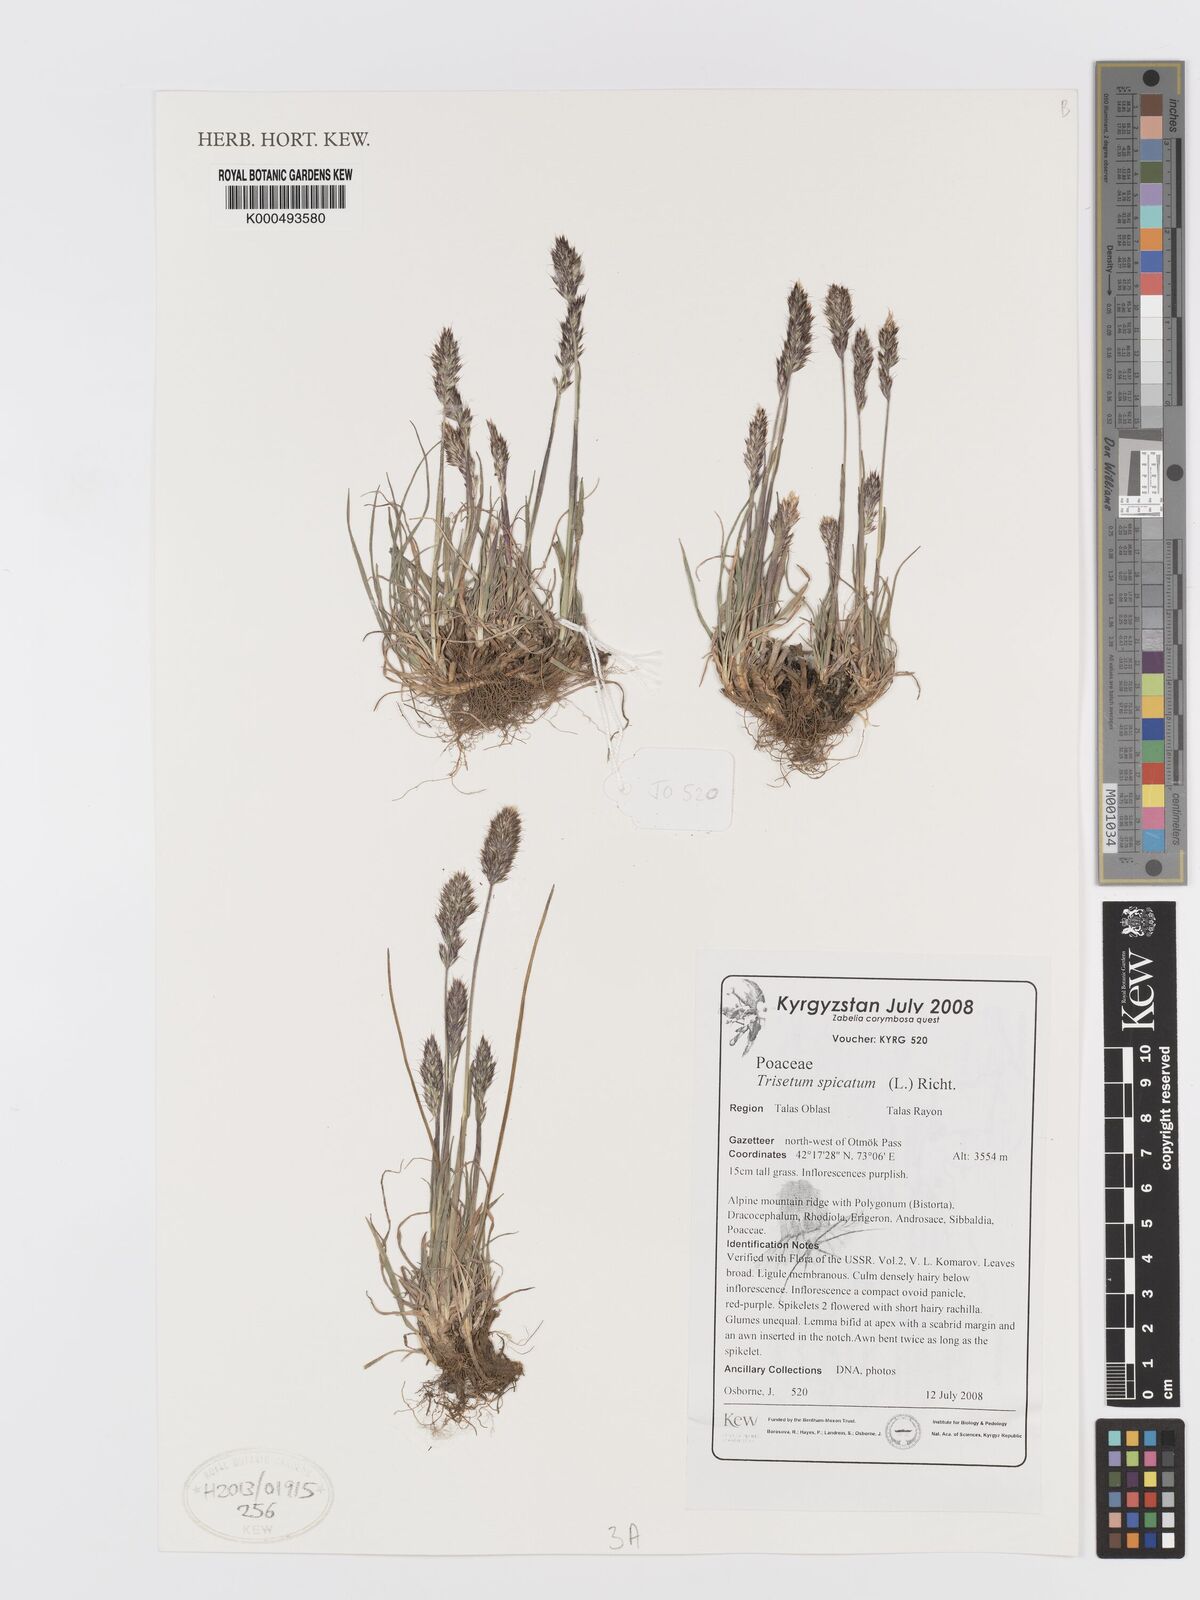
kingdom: Plantae
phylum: Tracheophyta
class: Liliopsida
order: Poales
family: Poaceae
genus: Koeleria
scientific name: Koeleria spicata
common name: Mountain trisetum
